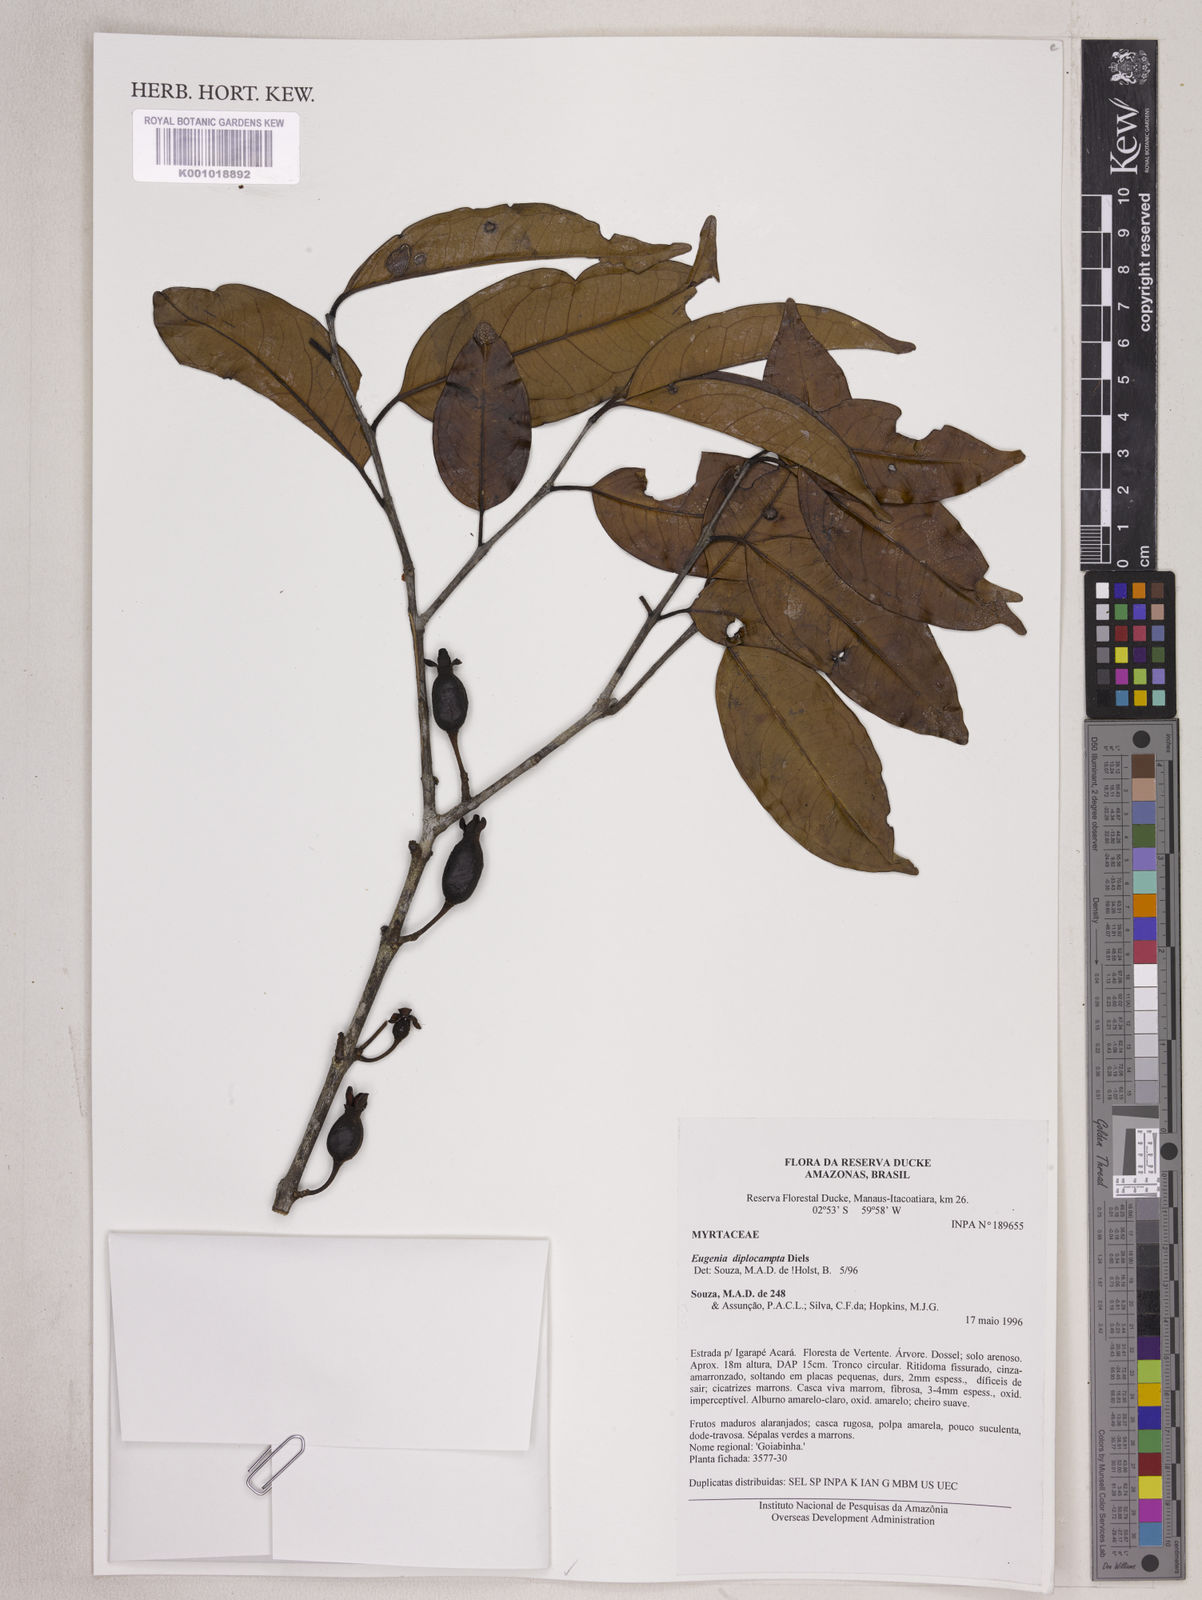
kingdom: Plantae
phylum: Tracheophyta
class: Magnoliopsida
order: Myrtales
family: Myrtaceae
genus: Eugenia
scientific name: Eugenia joseramosii
